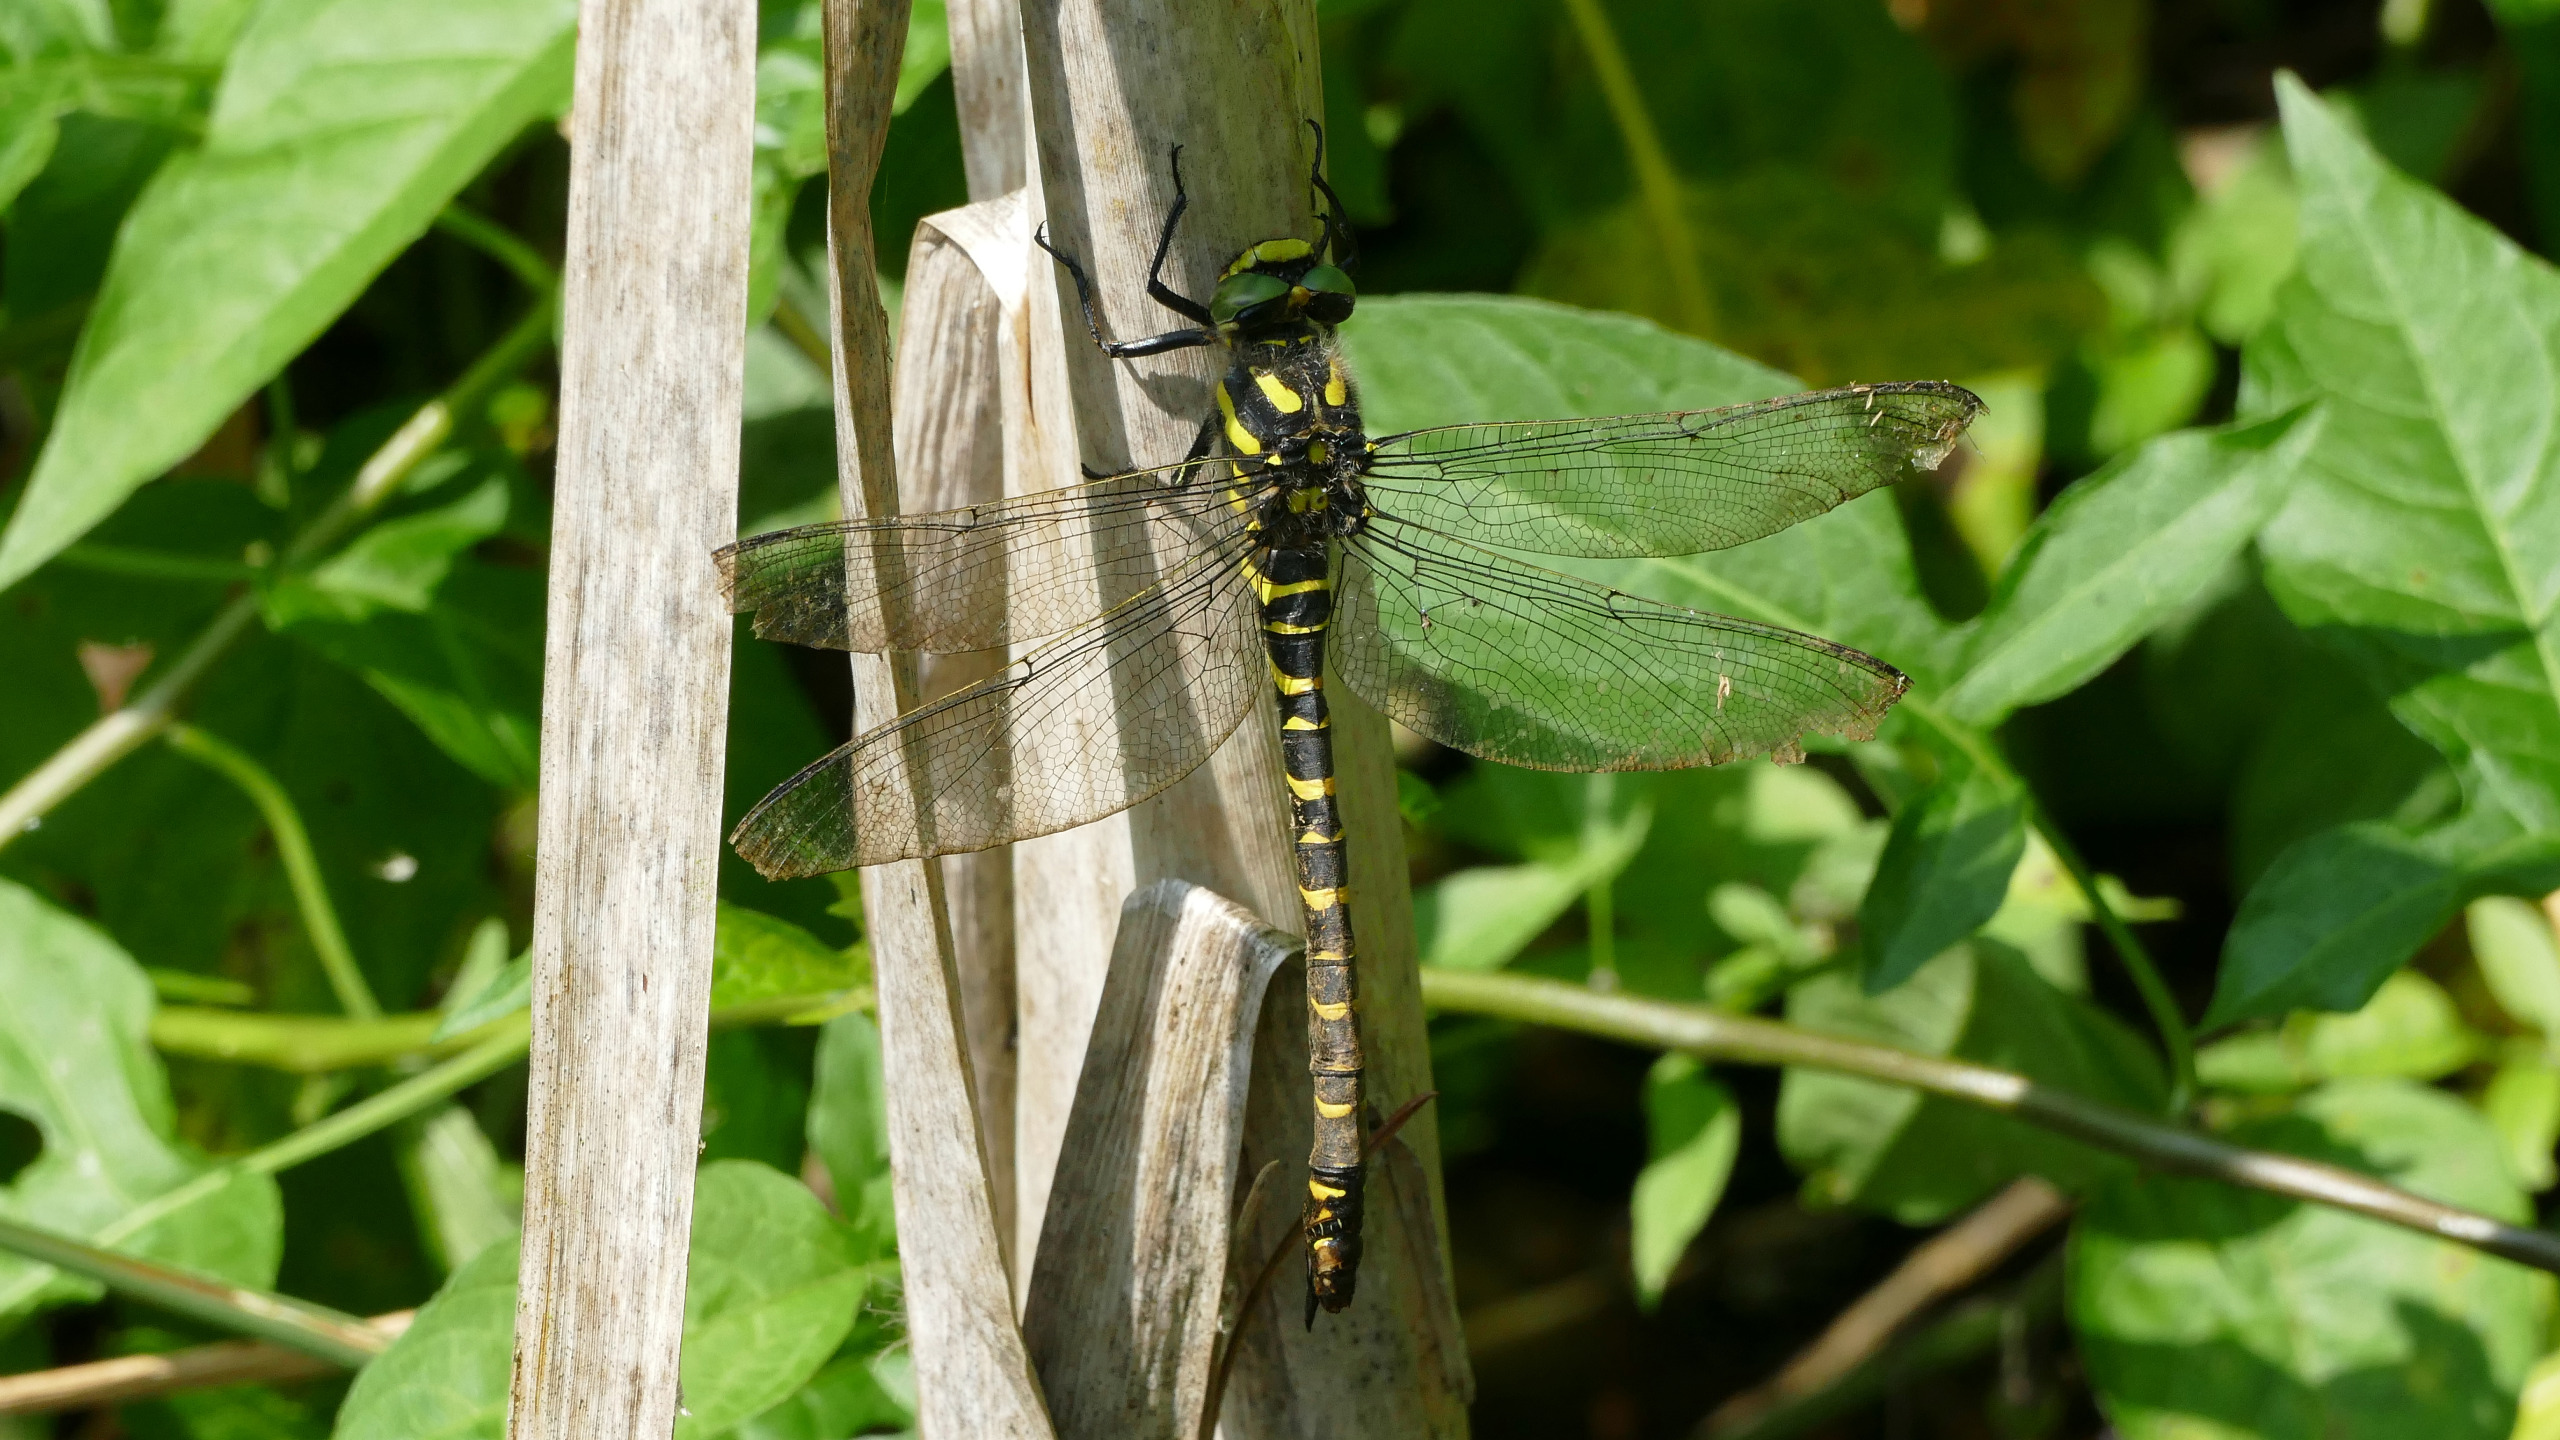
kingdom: Animalia
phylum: Arthropoda
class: Insecta
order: Odonata
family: Cordulegastridae
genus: Cordulegaster
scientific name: Cordulegaster boltonii
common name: Kongeguldsmed
